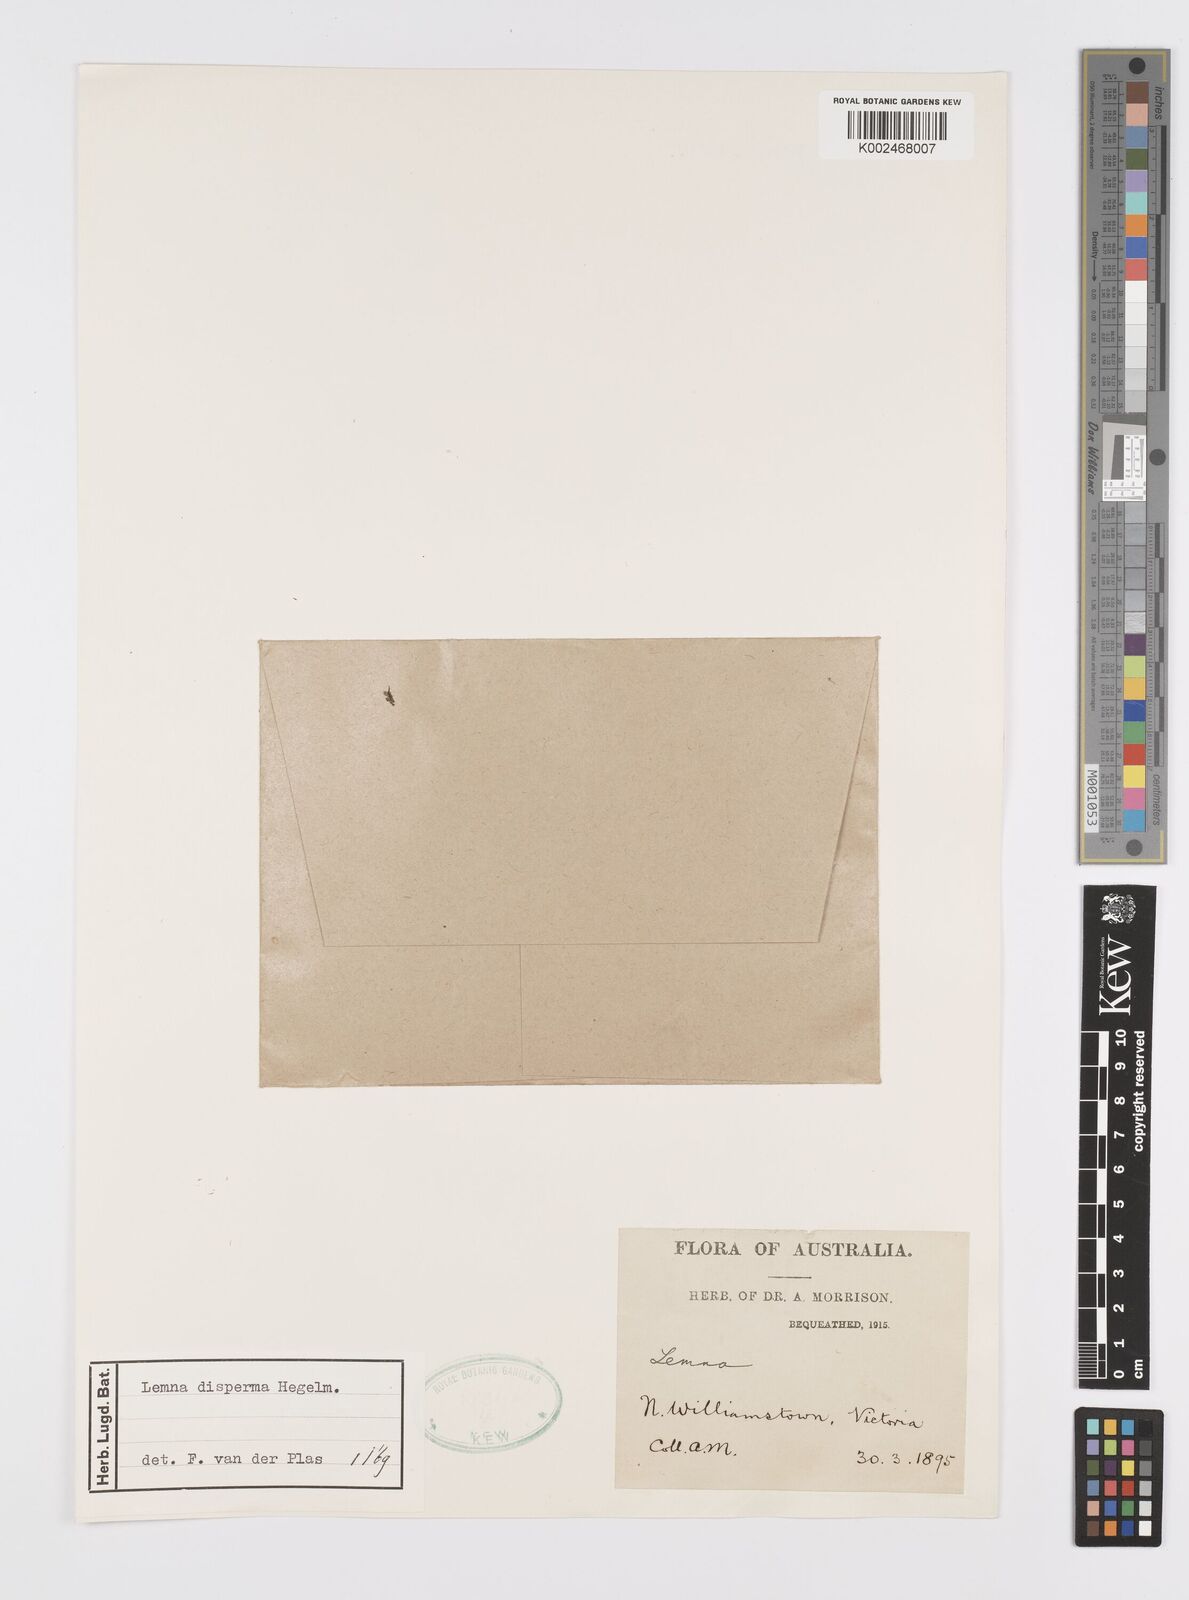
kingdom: Plantae
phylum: Tracheophyta
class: Liliopsida
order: Alismatales
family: Araceae
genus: Lemna
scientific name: Lemna disperma
